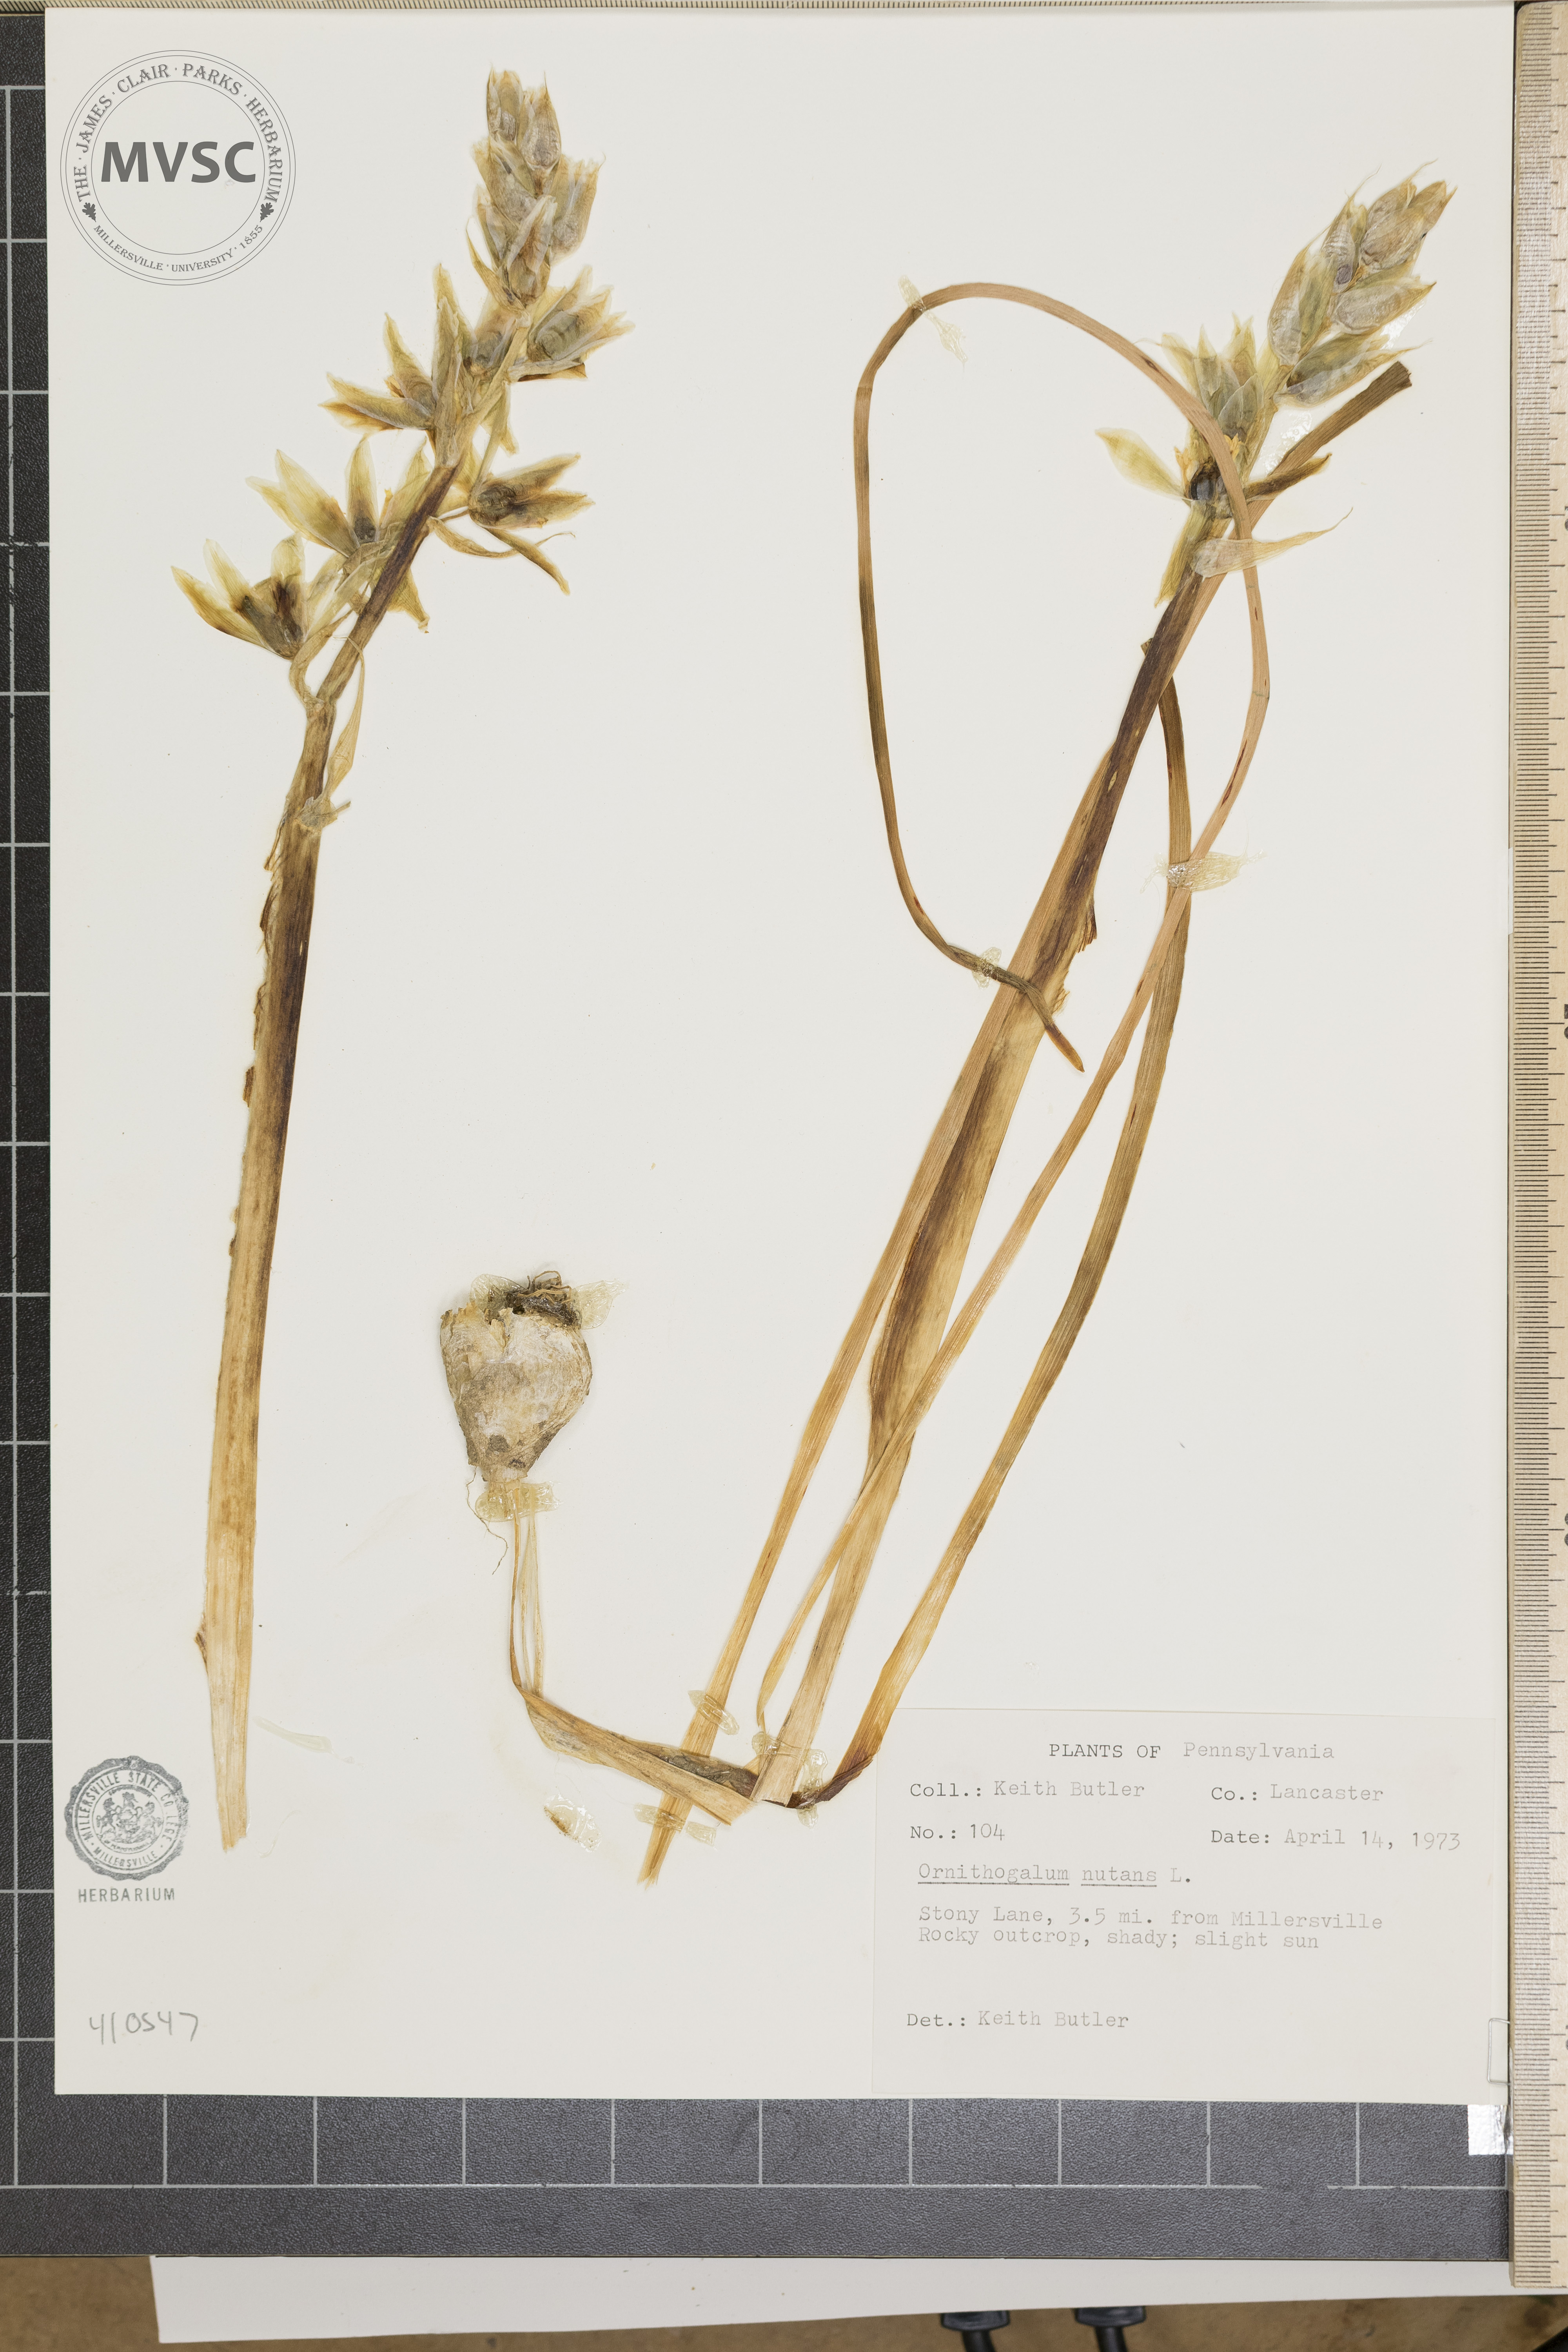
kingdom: Plantae
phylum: Tracheophyta
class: Liliopsida
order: Asparagales
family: Asparagaceae
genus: Ornithogalum
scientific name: Ornithogalum nutans
